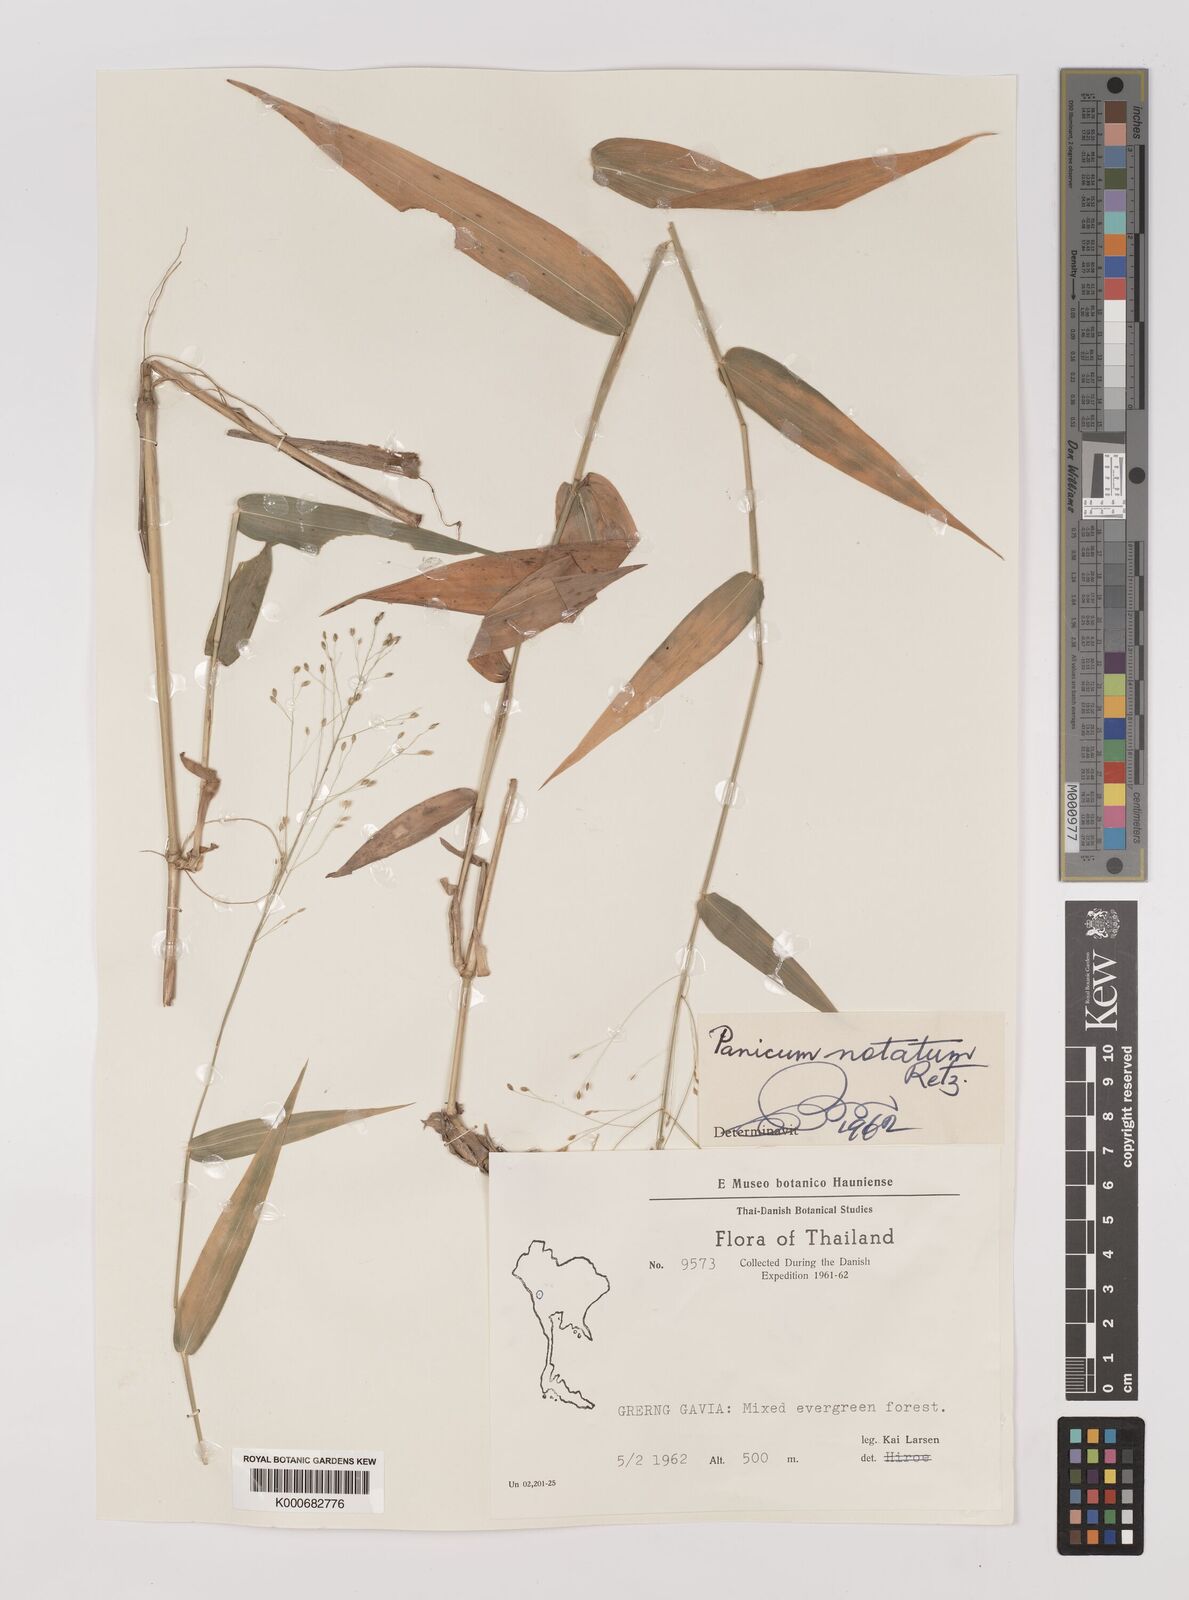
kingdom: Plantae
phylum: Tracheophyta
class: Liliopsida
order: Poales
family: Poaceae
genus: Panicum
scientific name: Panicum notatum
